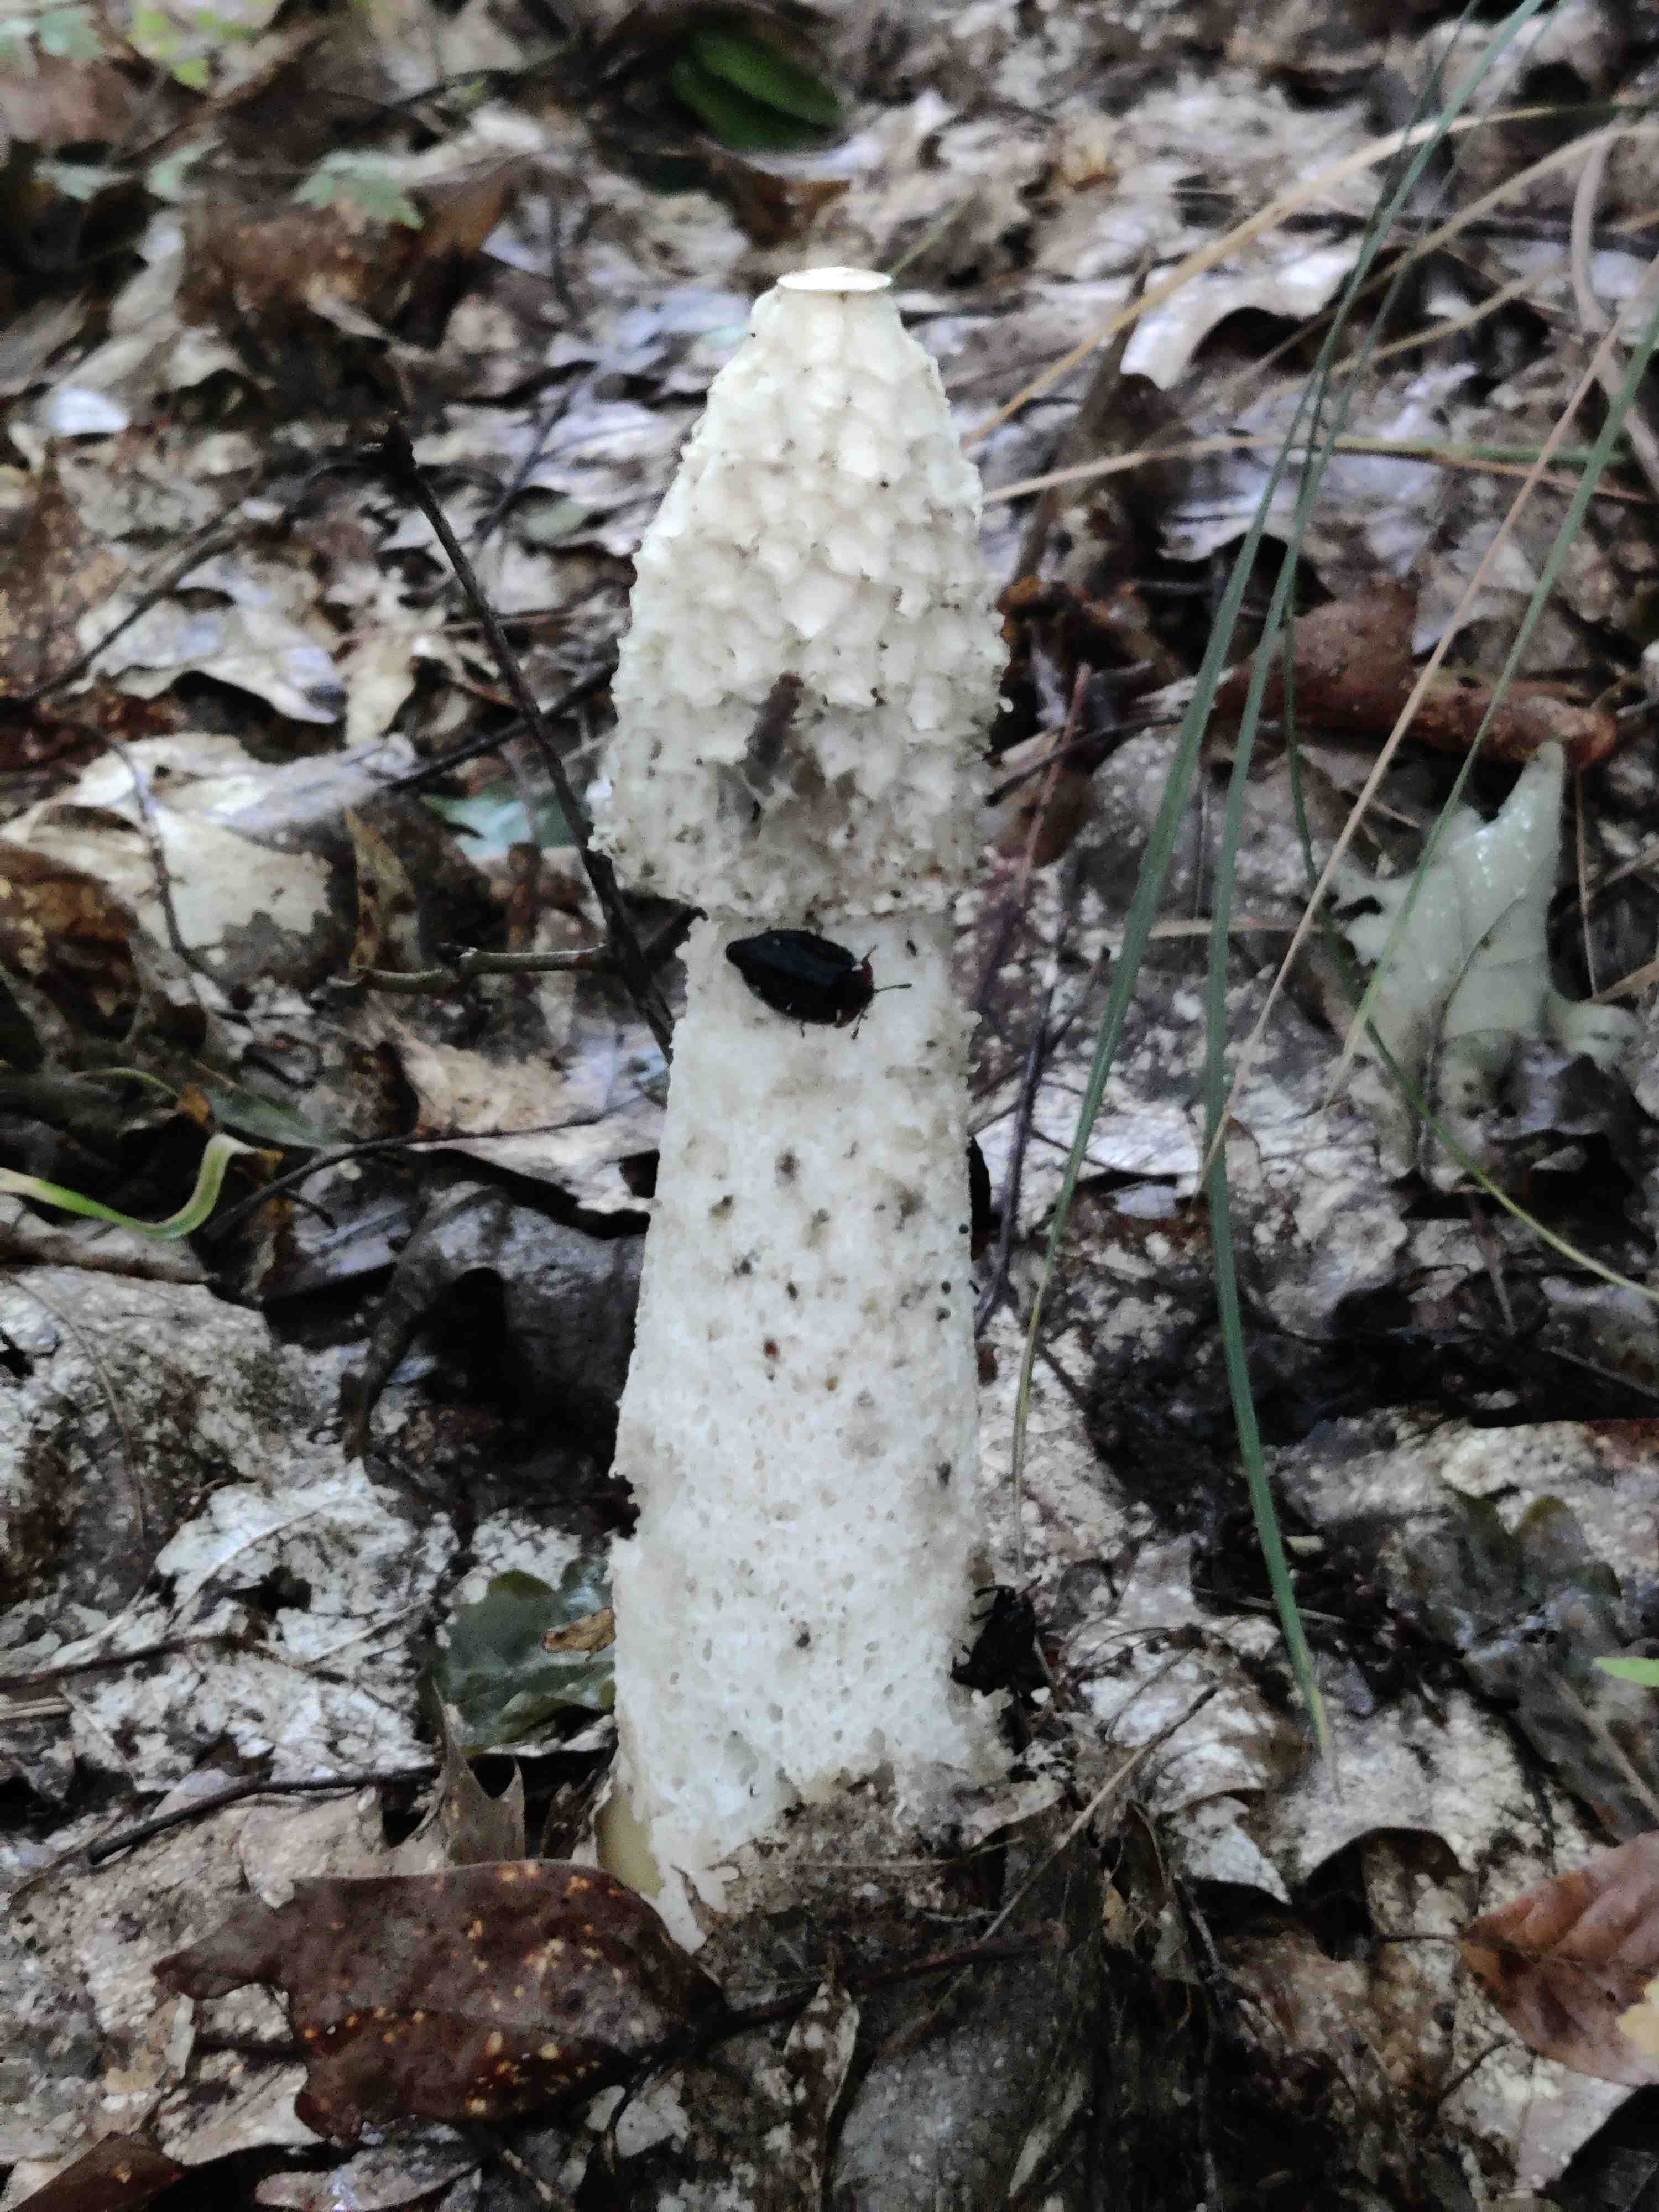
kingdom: Fungi
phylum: Basidiomycota
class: Agaricomycetes
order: Phallales
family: Phallaceae
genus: Phallus
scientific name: Phallus impudicus
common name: almindelig stinksvamp
